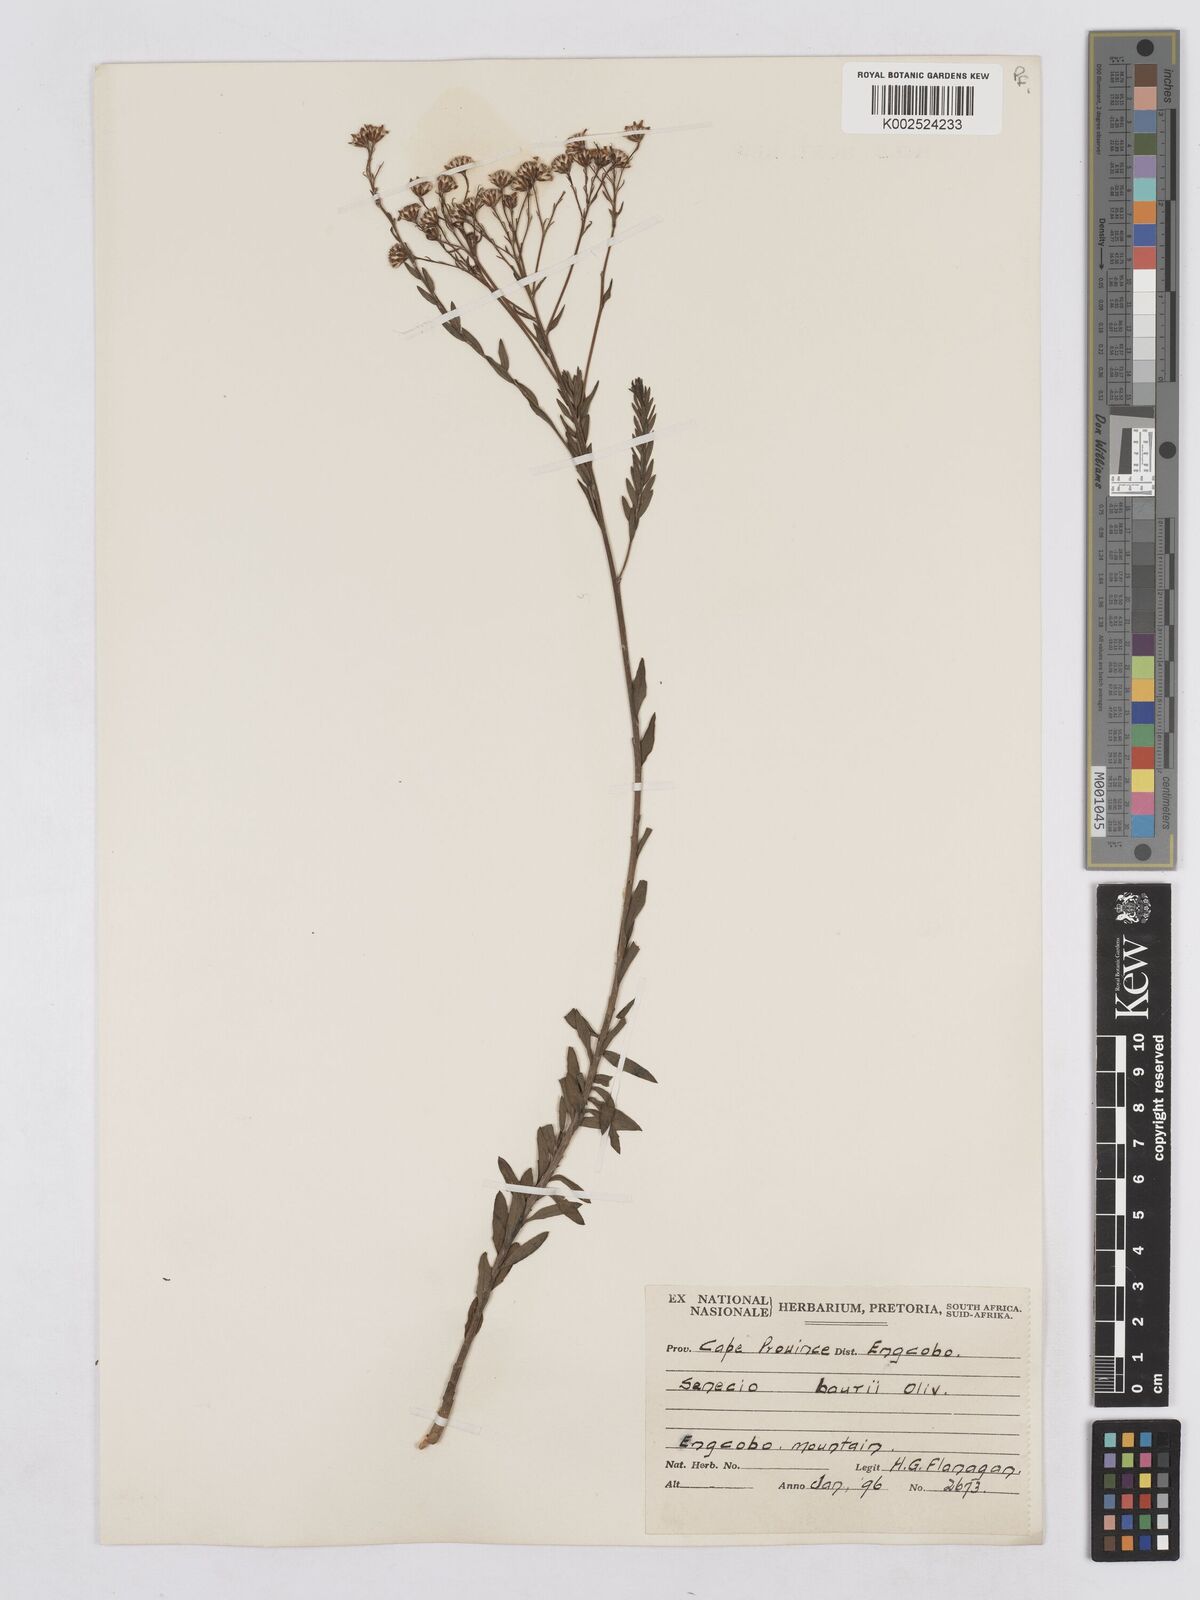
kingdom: Plantae
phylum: Tracheophyta
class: Magnoliopsida
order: Asterales
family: Asteraceae
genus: Senecio
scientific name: Senecio baurii
